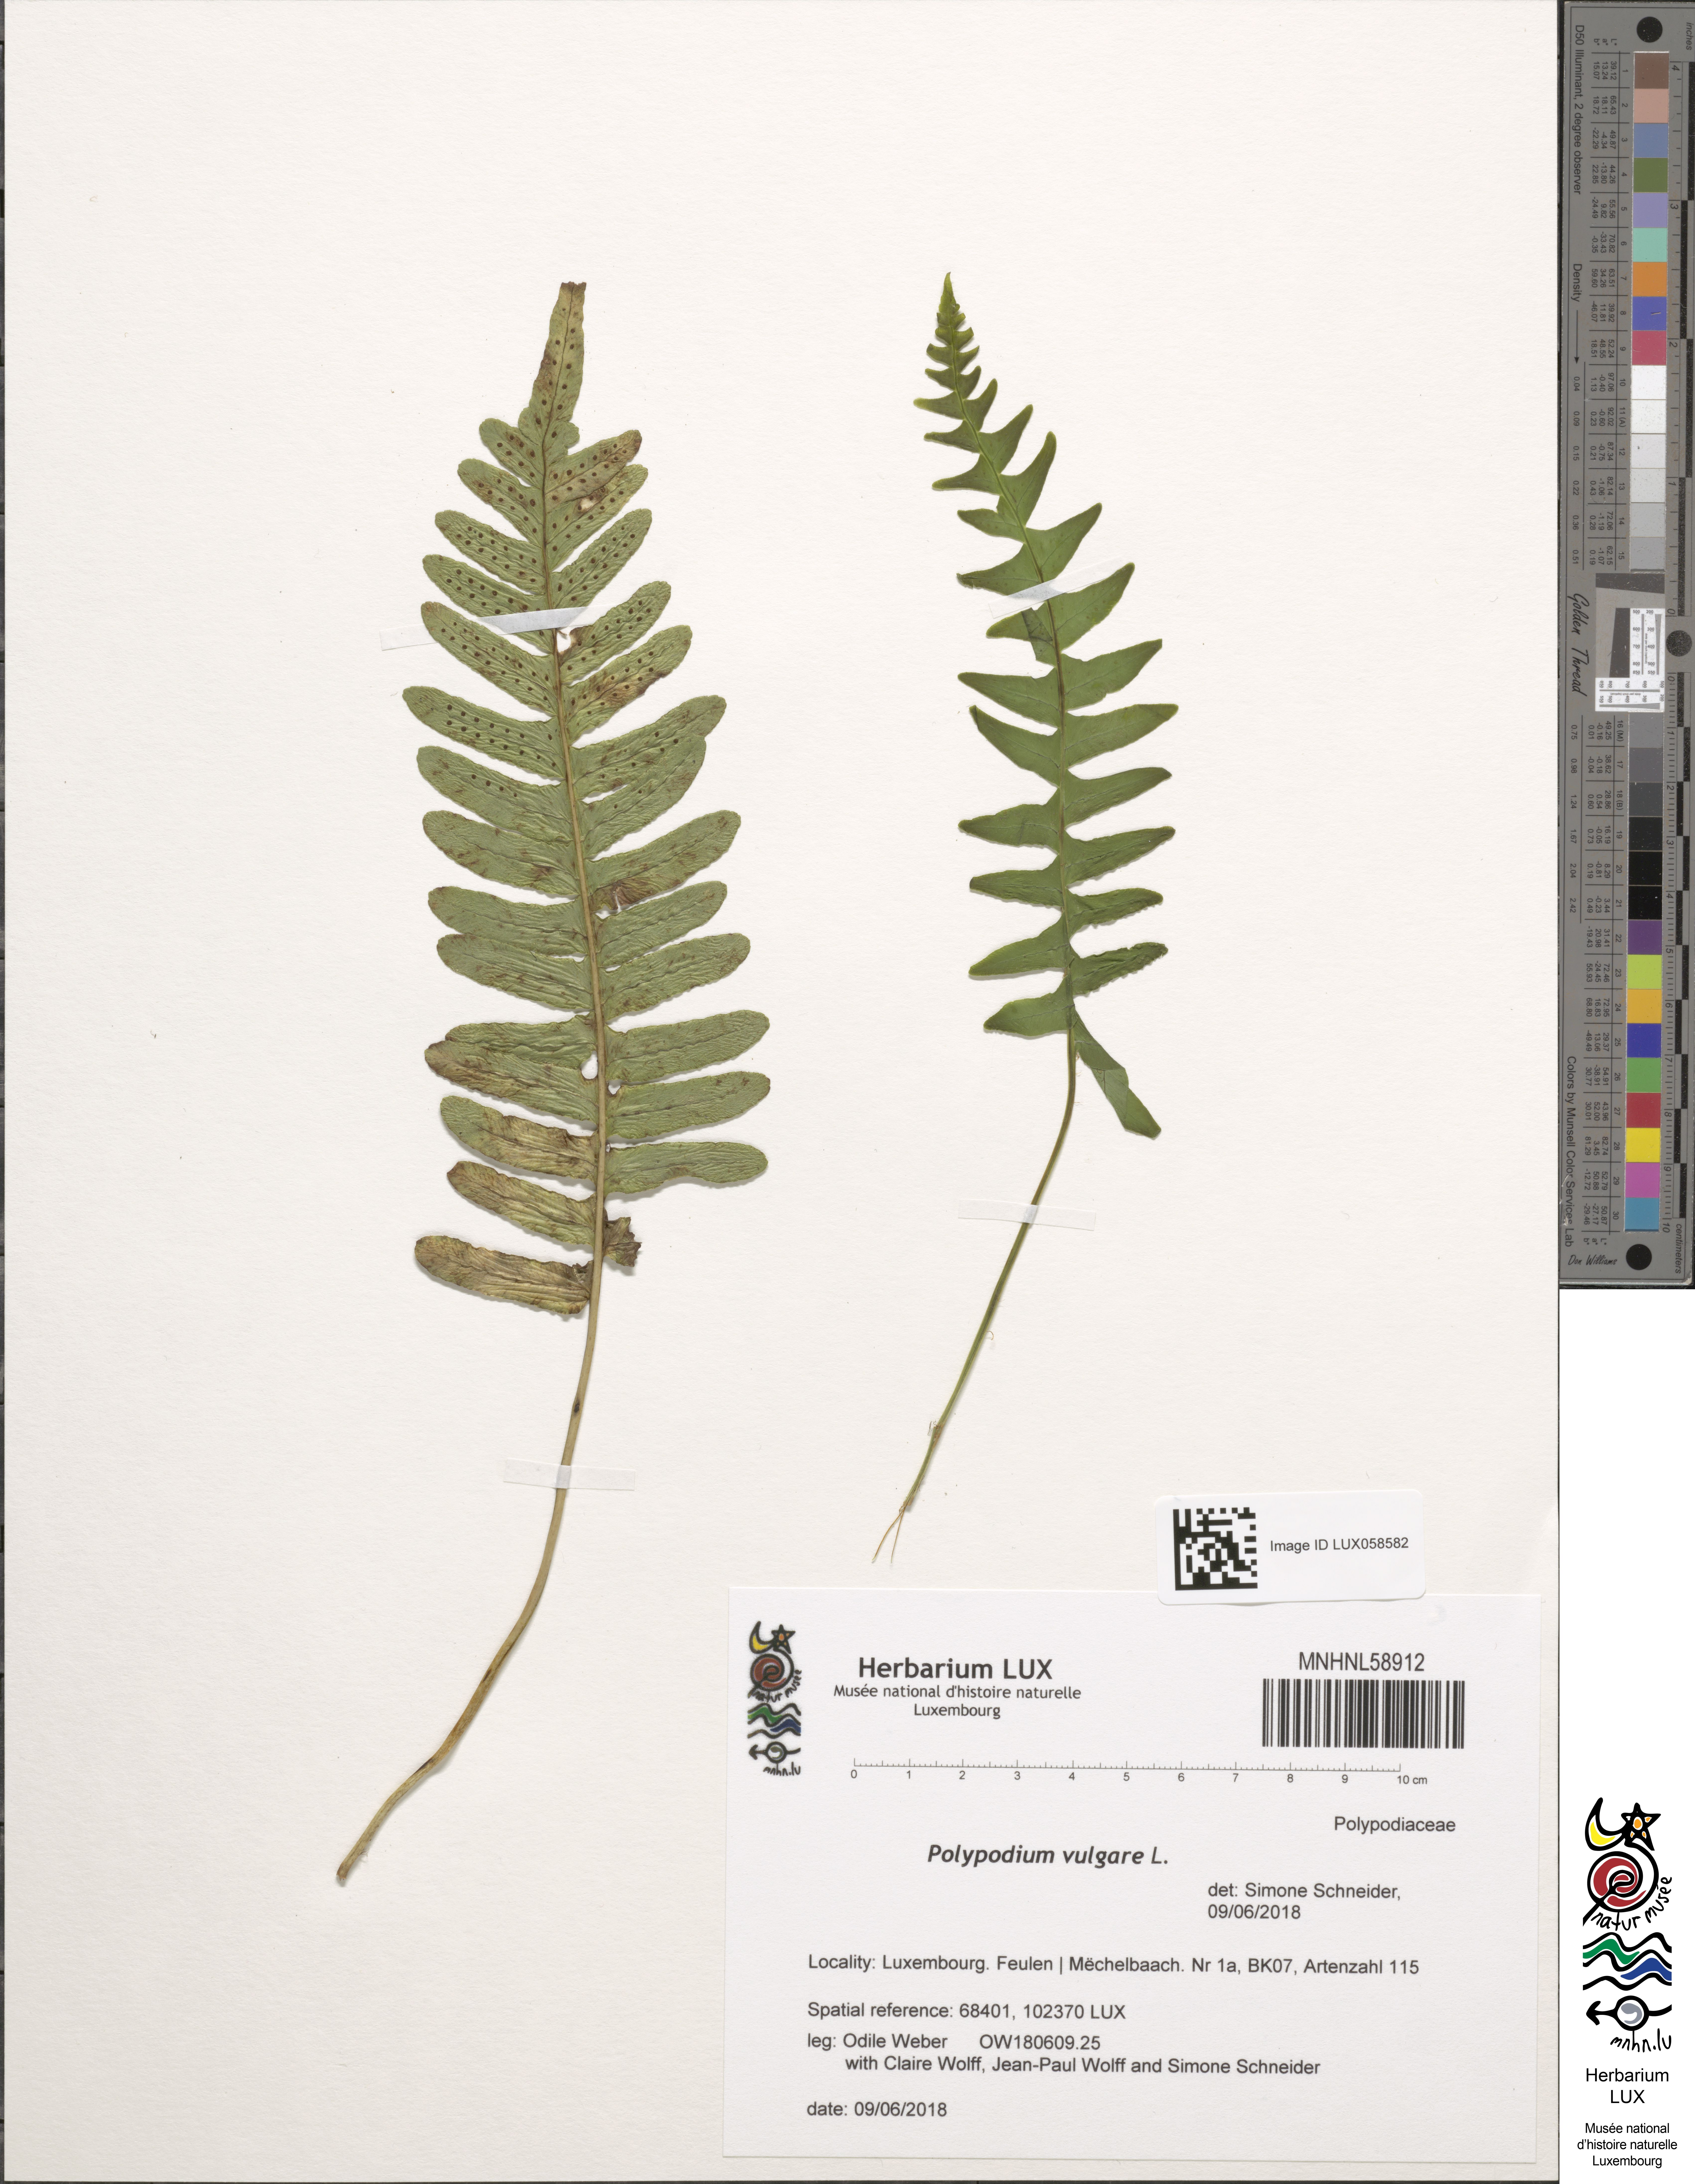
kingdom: Plantae
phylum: Tracheophyta
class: Polypodiopsida
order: Polypodiales
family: Polypodiaceae
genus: Polypodium
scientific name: Polypodium vulgare
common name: Common polypody
